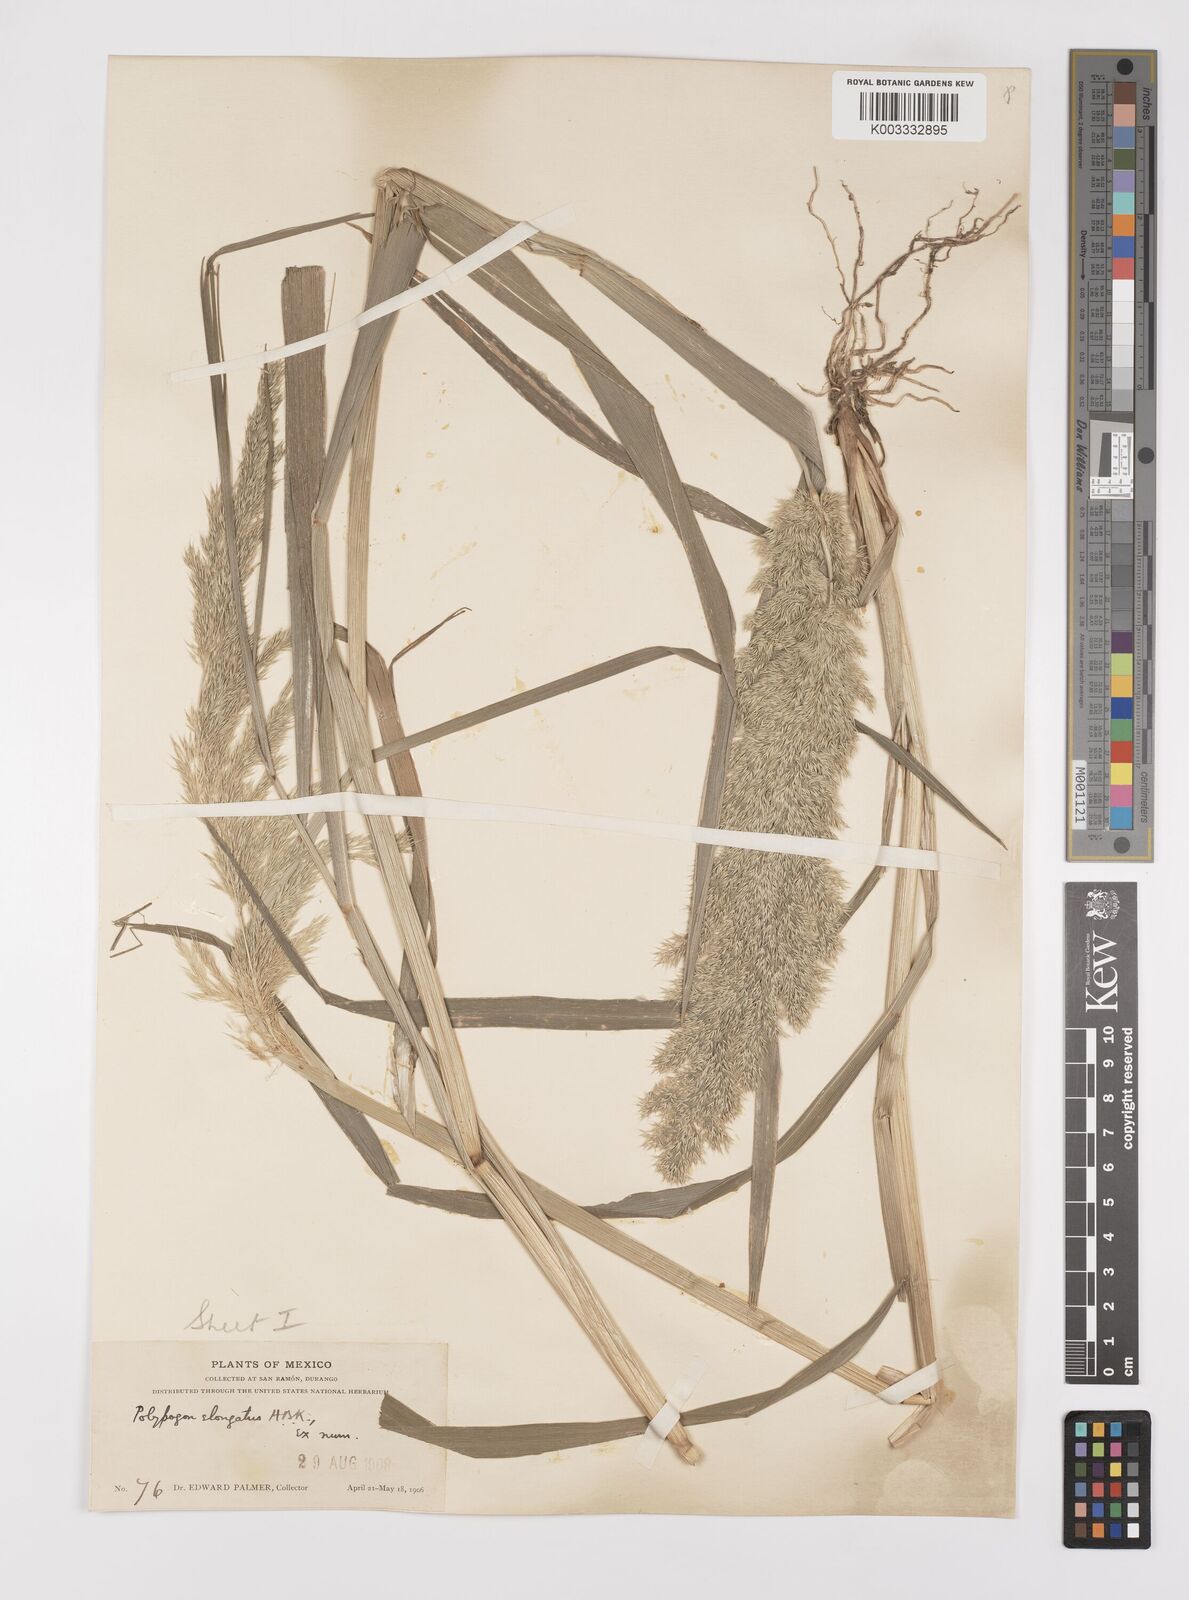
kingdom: Plantae
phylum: Tracheophyta
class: Liliopsida
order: Poales
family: Poaceae
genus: Polypogon
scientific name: Polypogon elongatus
